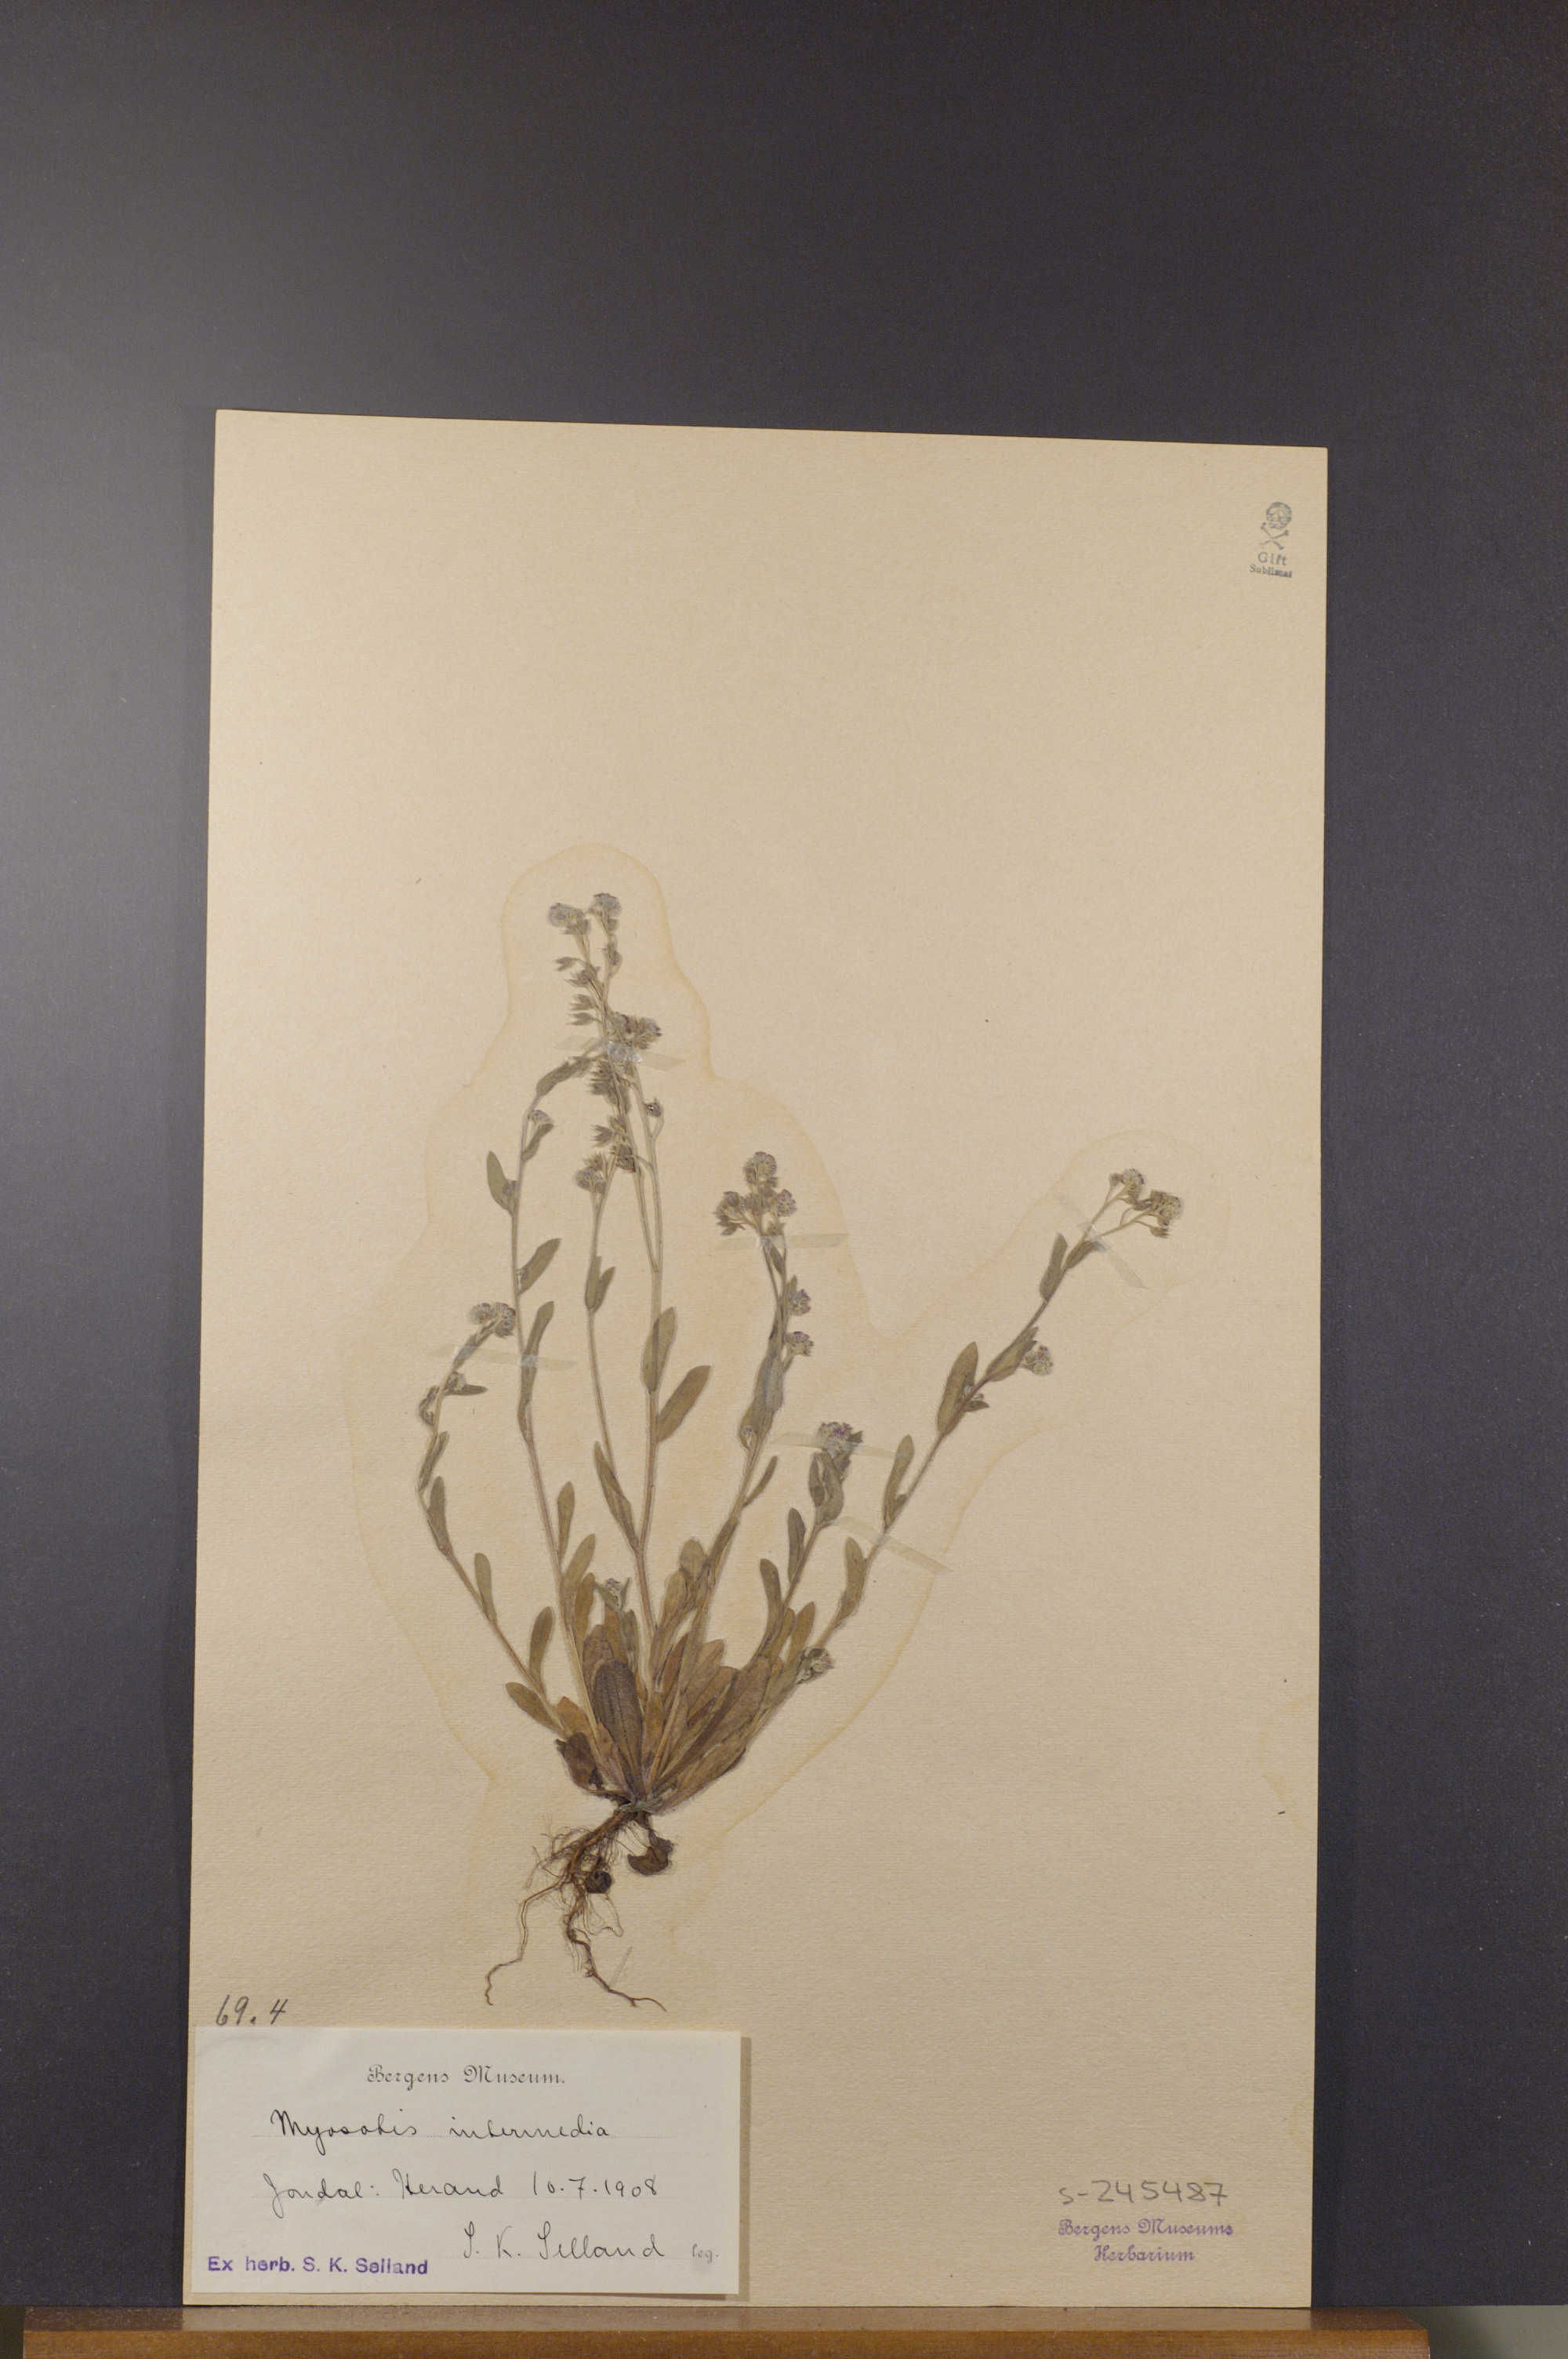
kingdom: Plantae
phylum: Tracheophyta
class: Magnoliopsida
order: Boraginales
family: Boraginaceae
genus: Myosotis
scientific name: Myosotis arvensis
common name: Field forget-me-not
